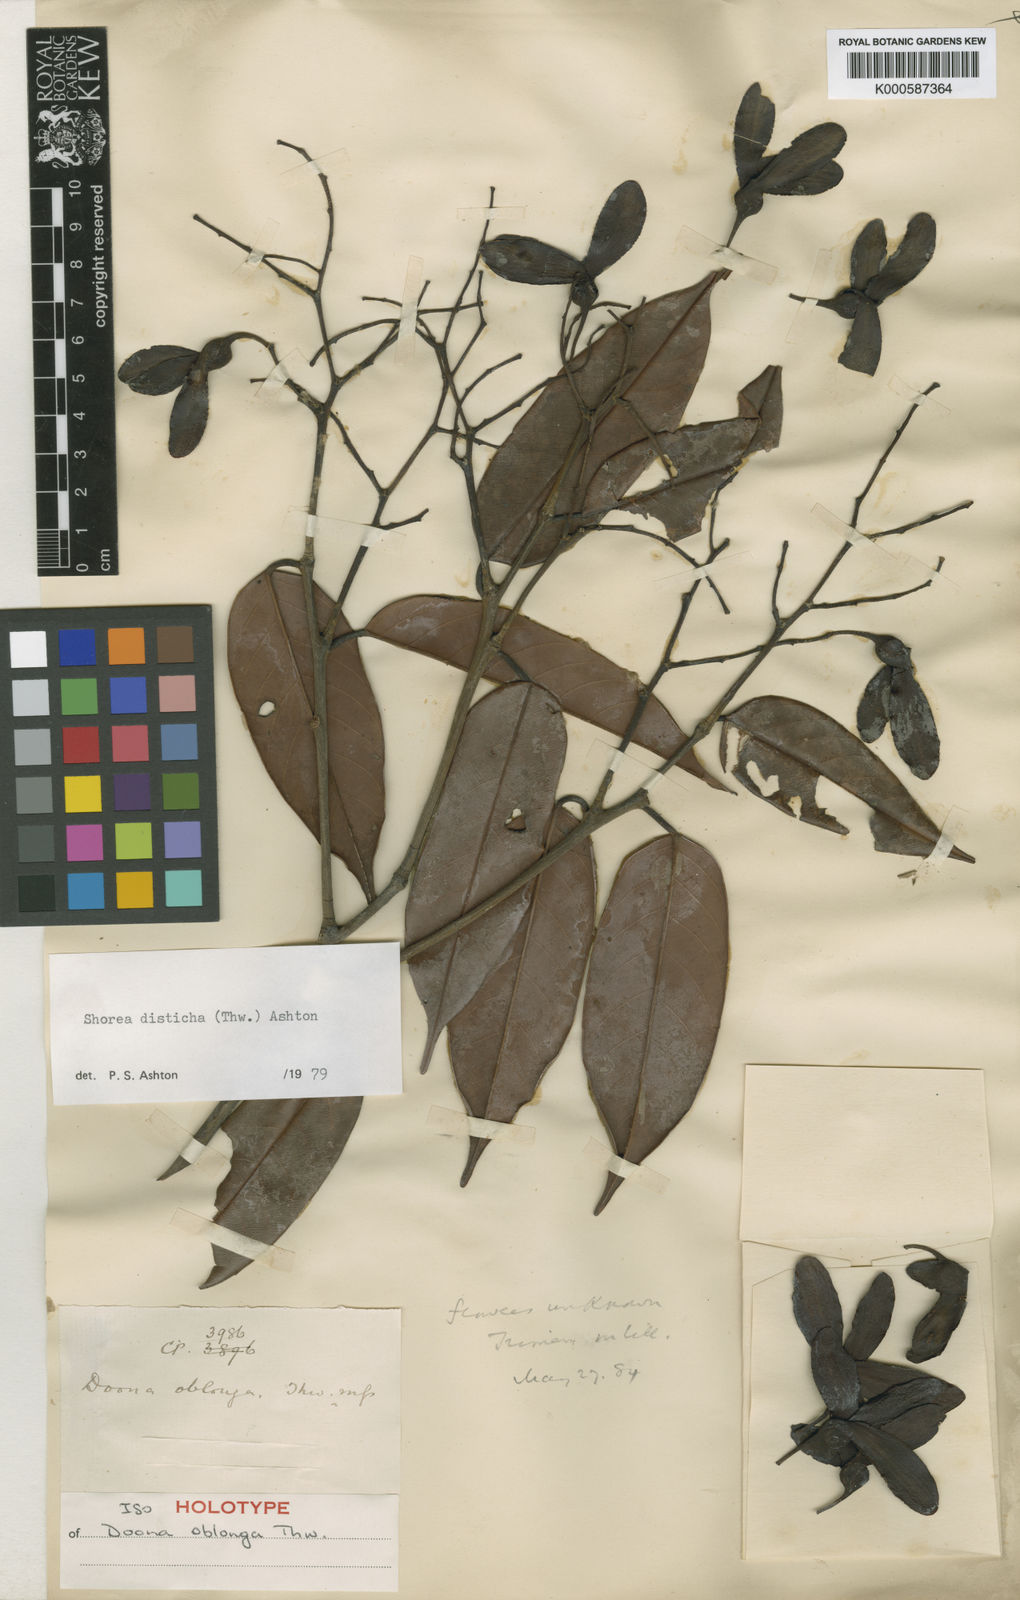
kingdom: Plantae
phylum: Tracheophyta
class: Magnoliopsida
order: Malvales
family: Dipterocarpaceae
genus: Doona
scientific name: Doona disticha
